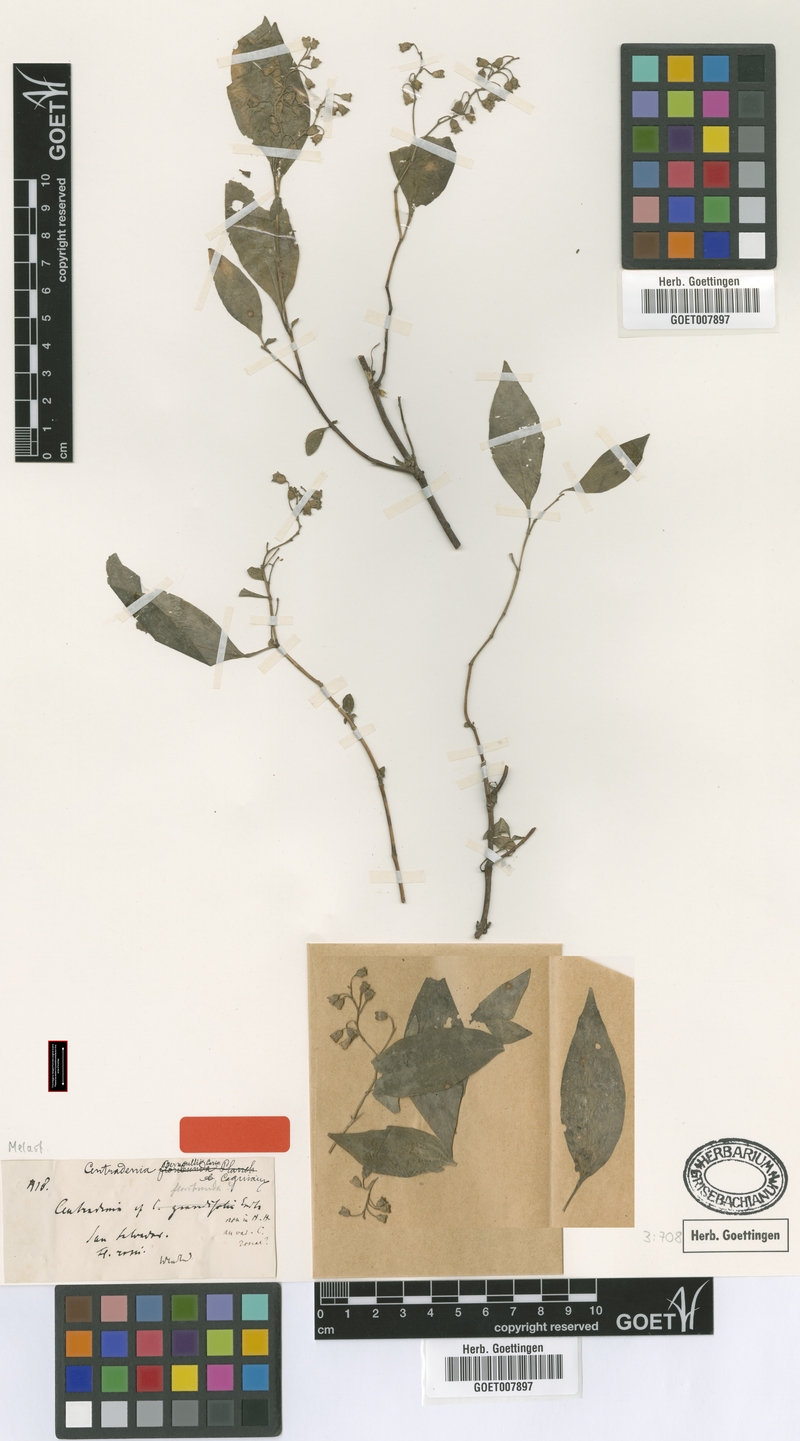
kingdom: Plantae
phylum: Tracheophyta
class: Magnoliopsida
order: Myrtales
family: Melastomataceae
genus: Centradenia
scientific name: Centradenia floribunda
